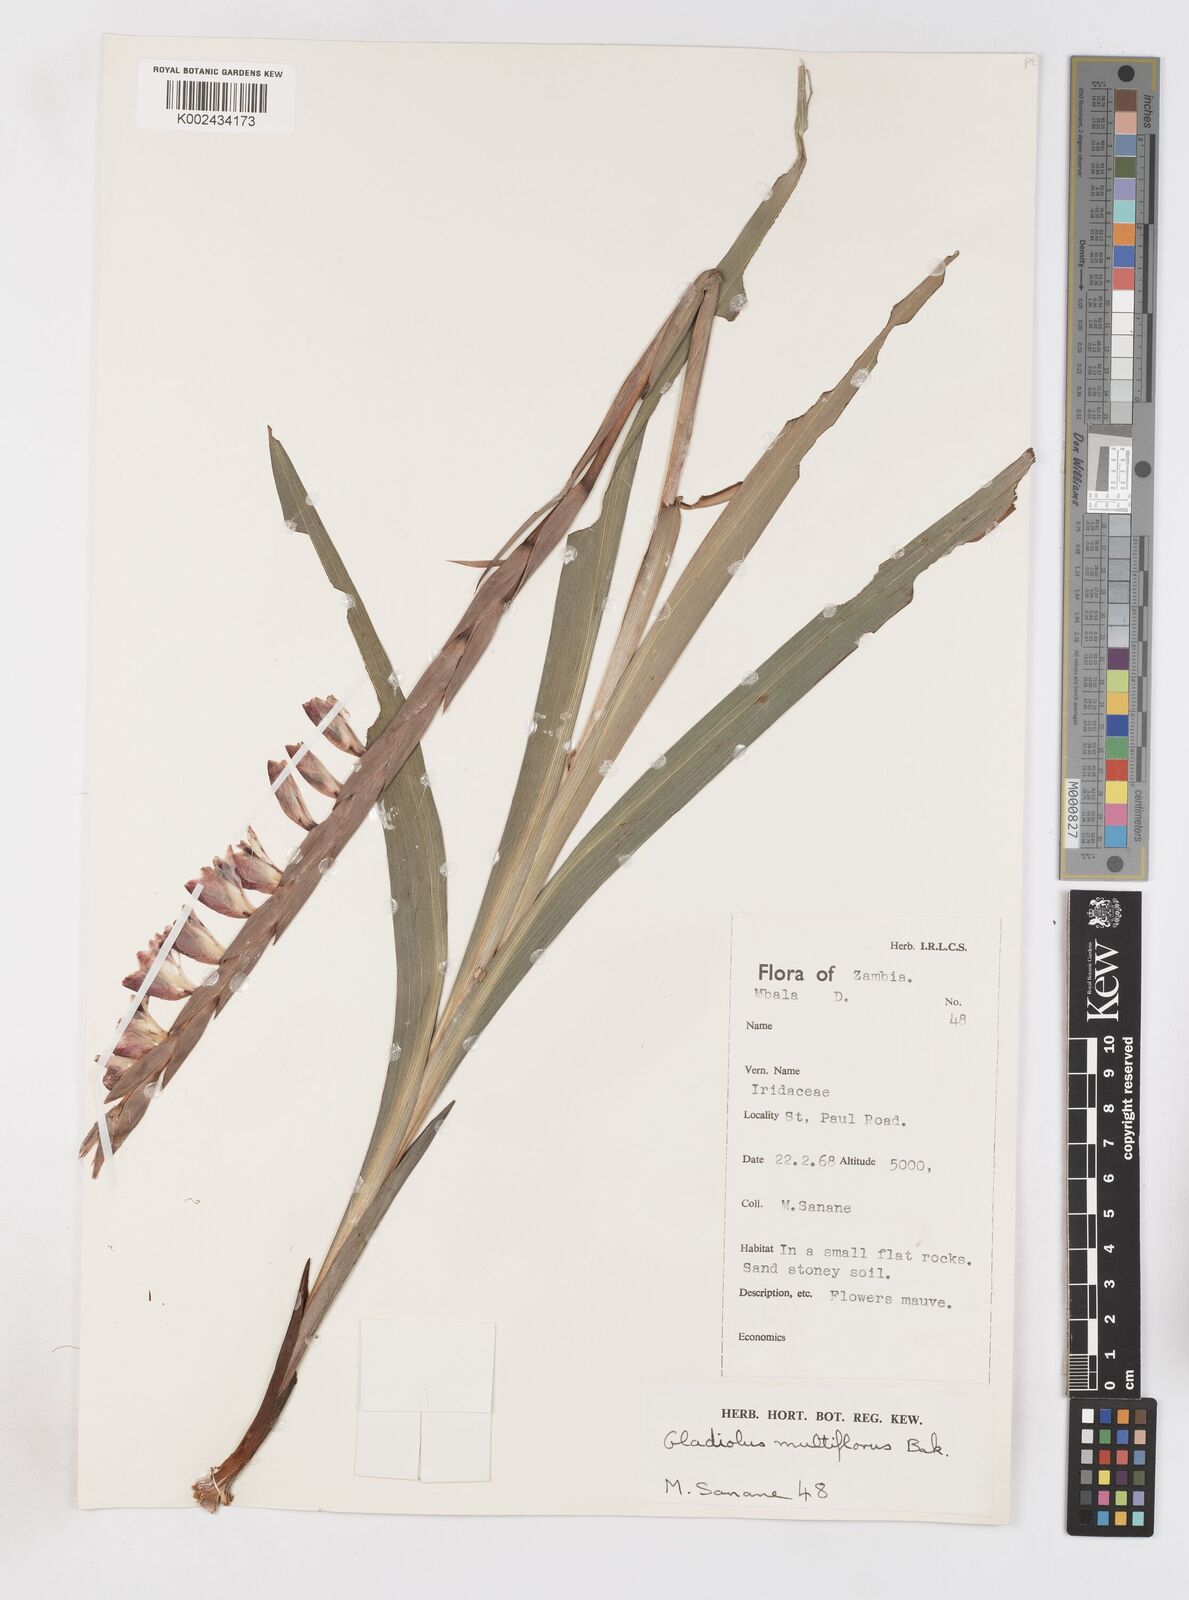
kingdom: Plantae
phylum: Tracheophyta
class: Liliopsida
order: Asparagales
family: Iridaceae
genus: Gladiolus
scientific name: Gladiolus gregarius
